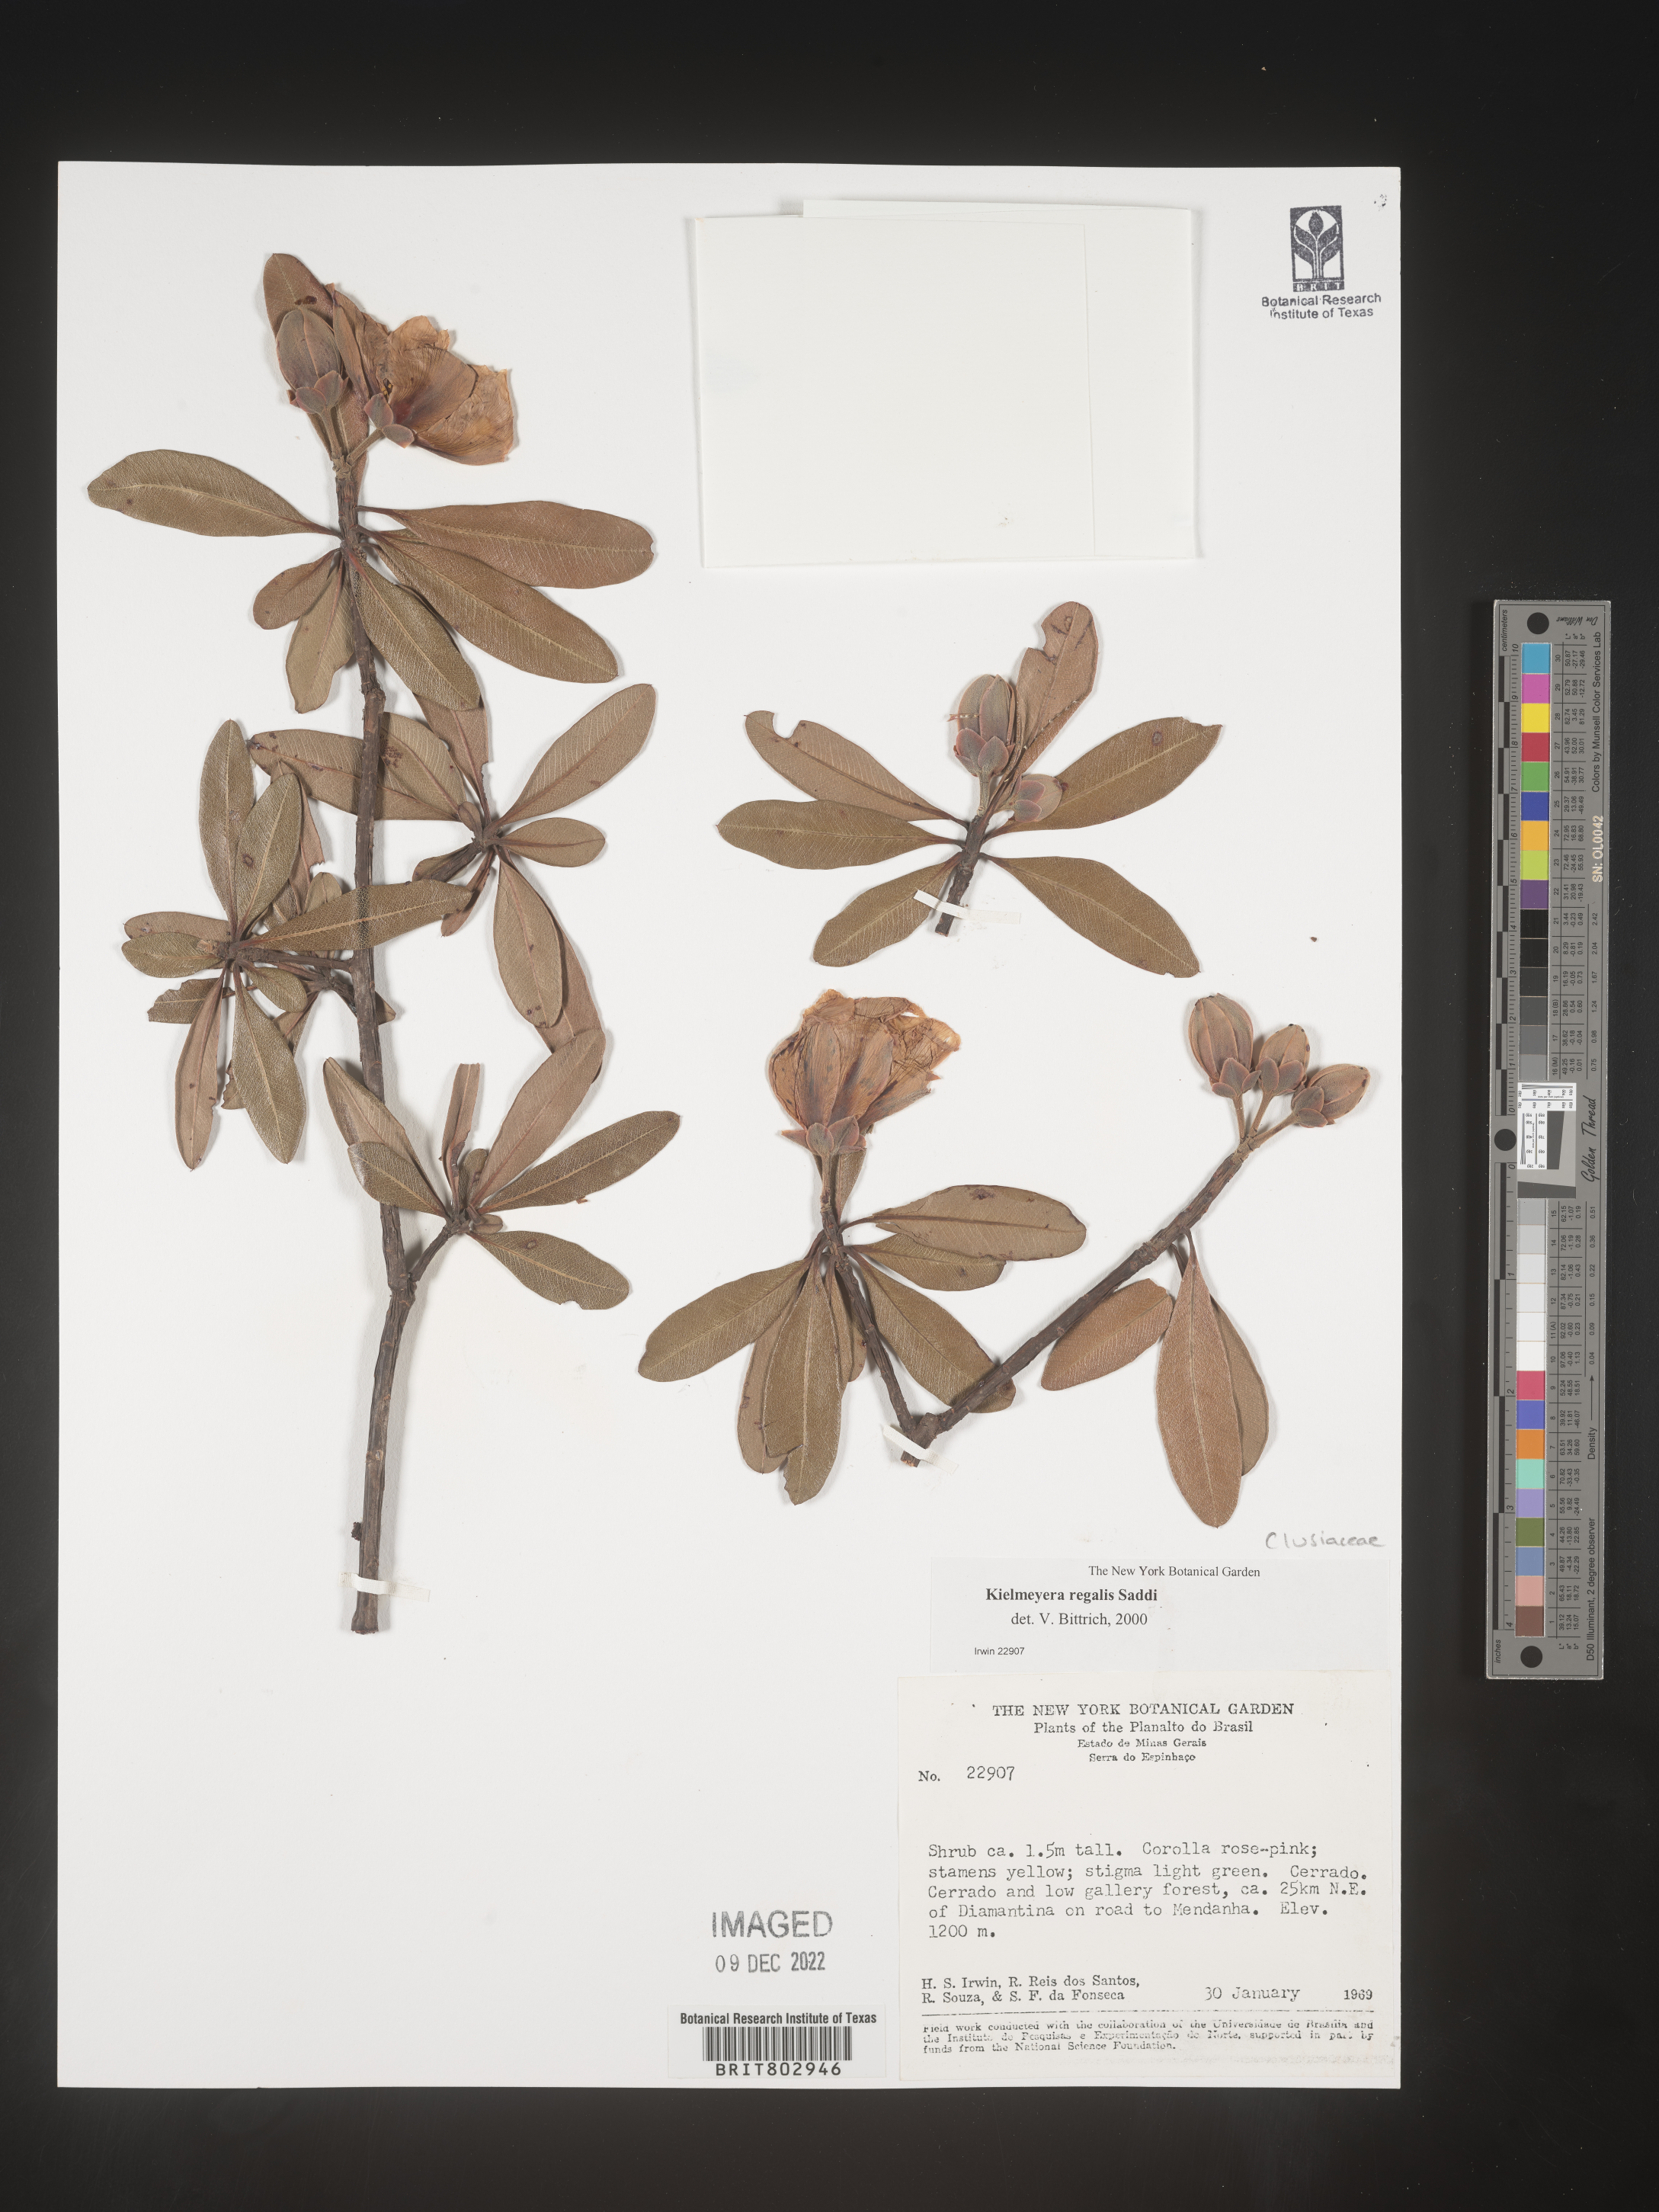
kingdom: Plantae
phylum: Tracheophyta
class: Magnoliopsida
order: Malpighiales
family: Calophyllaceae
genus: Kielmeyera
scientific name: Kielmeyera
